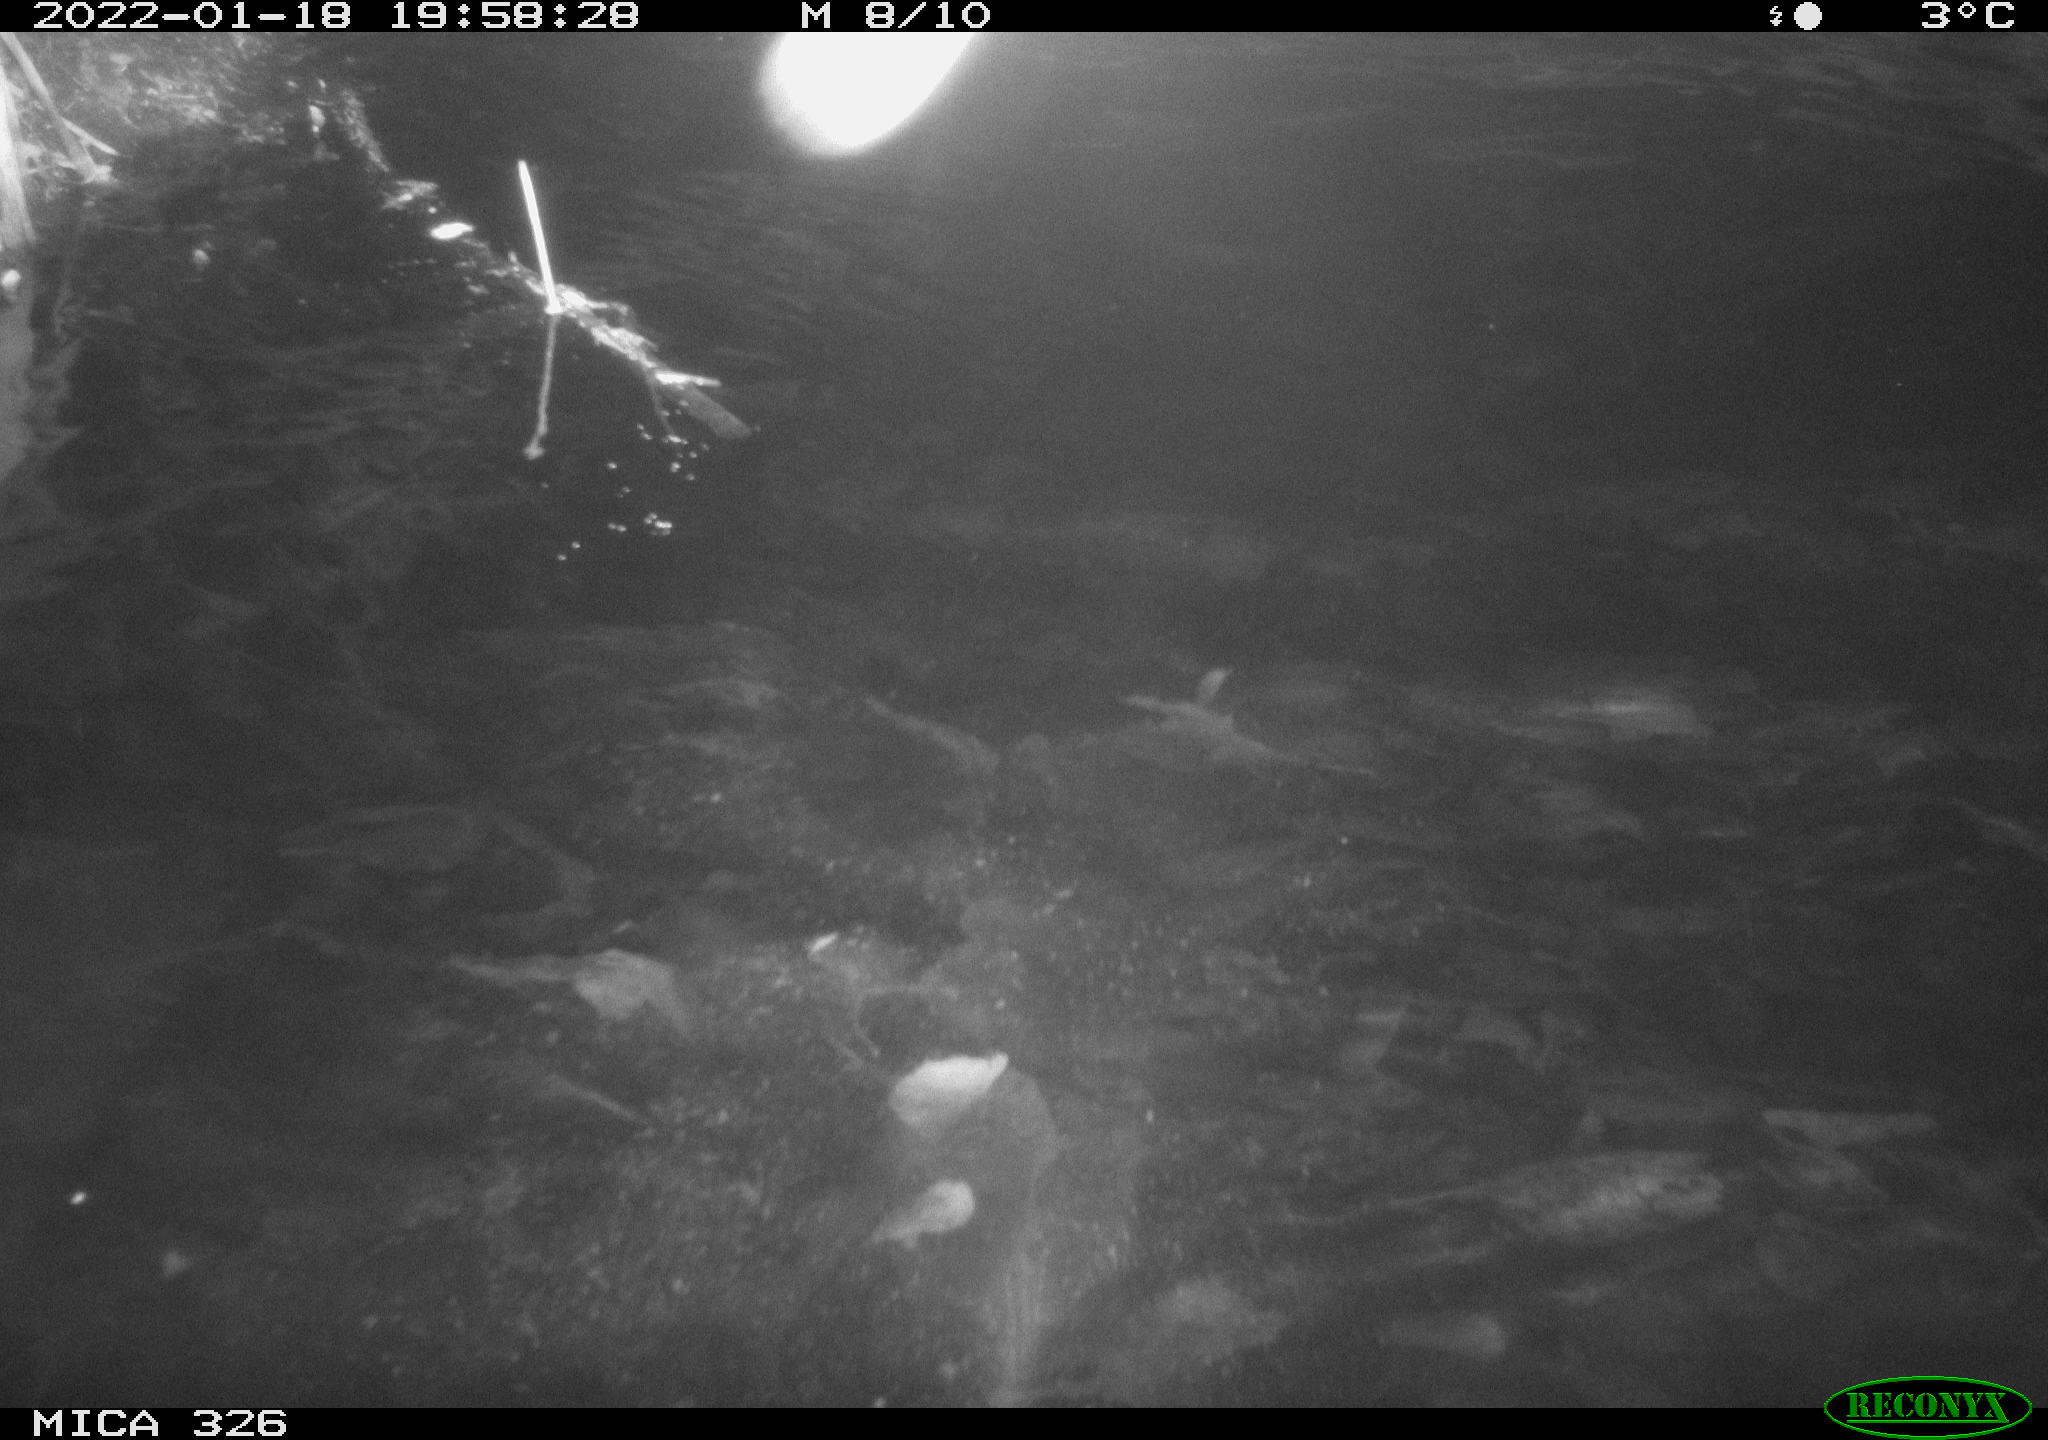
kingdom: Animalia
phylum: Chordata
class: Mammalia
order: Rodentia
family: Cricetidae
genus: Ondatra
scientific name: Ondatra zibethicus
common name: Muskrat
